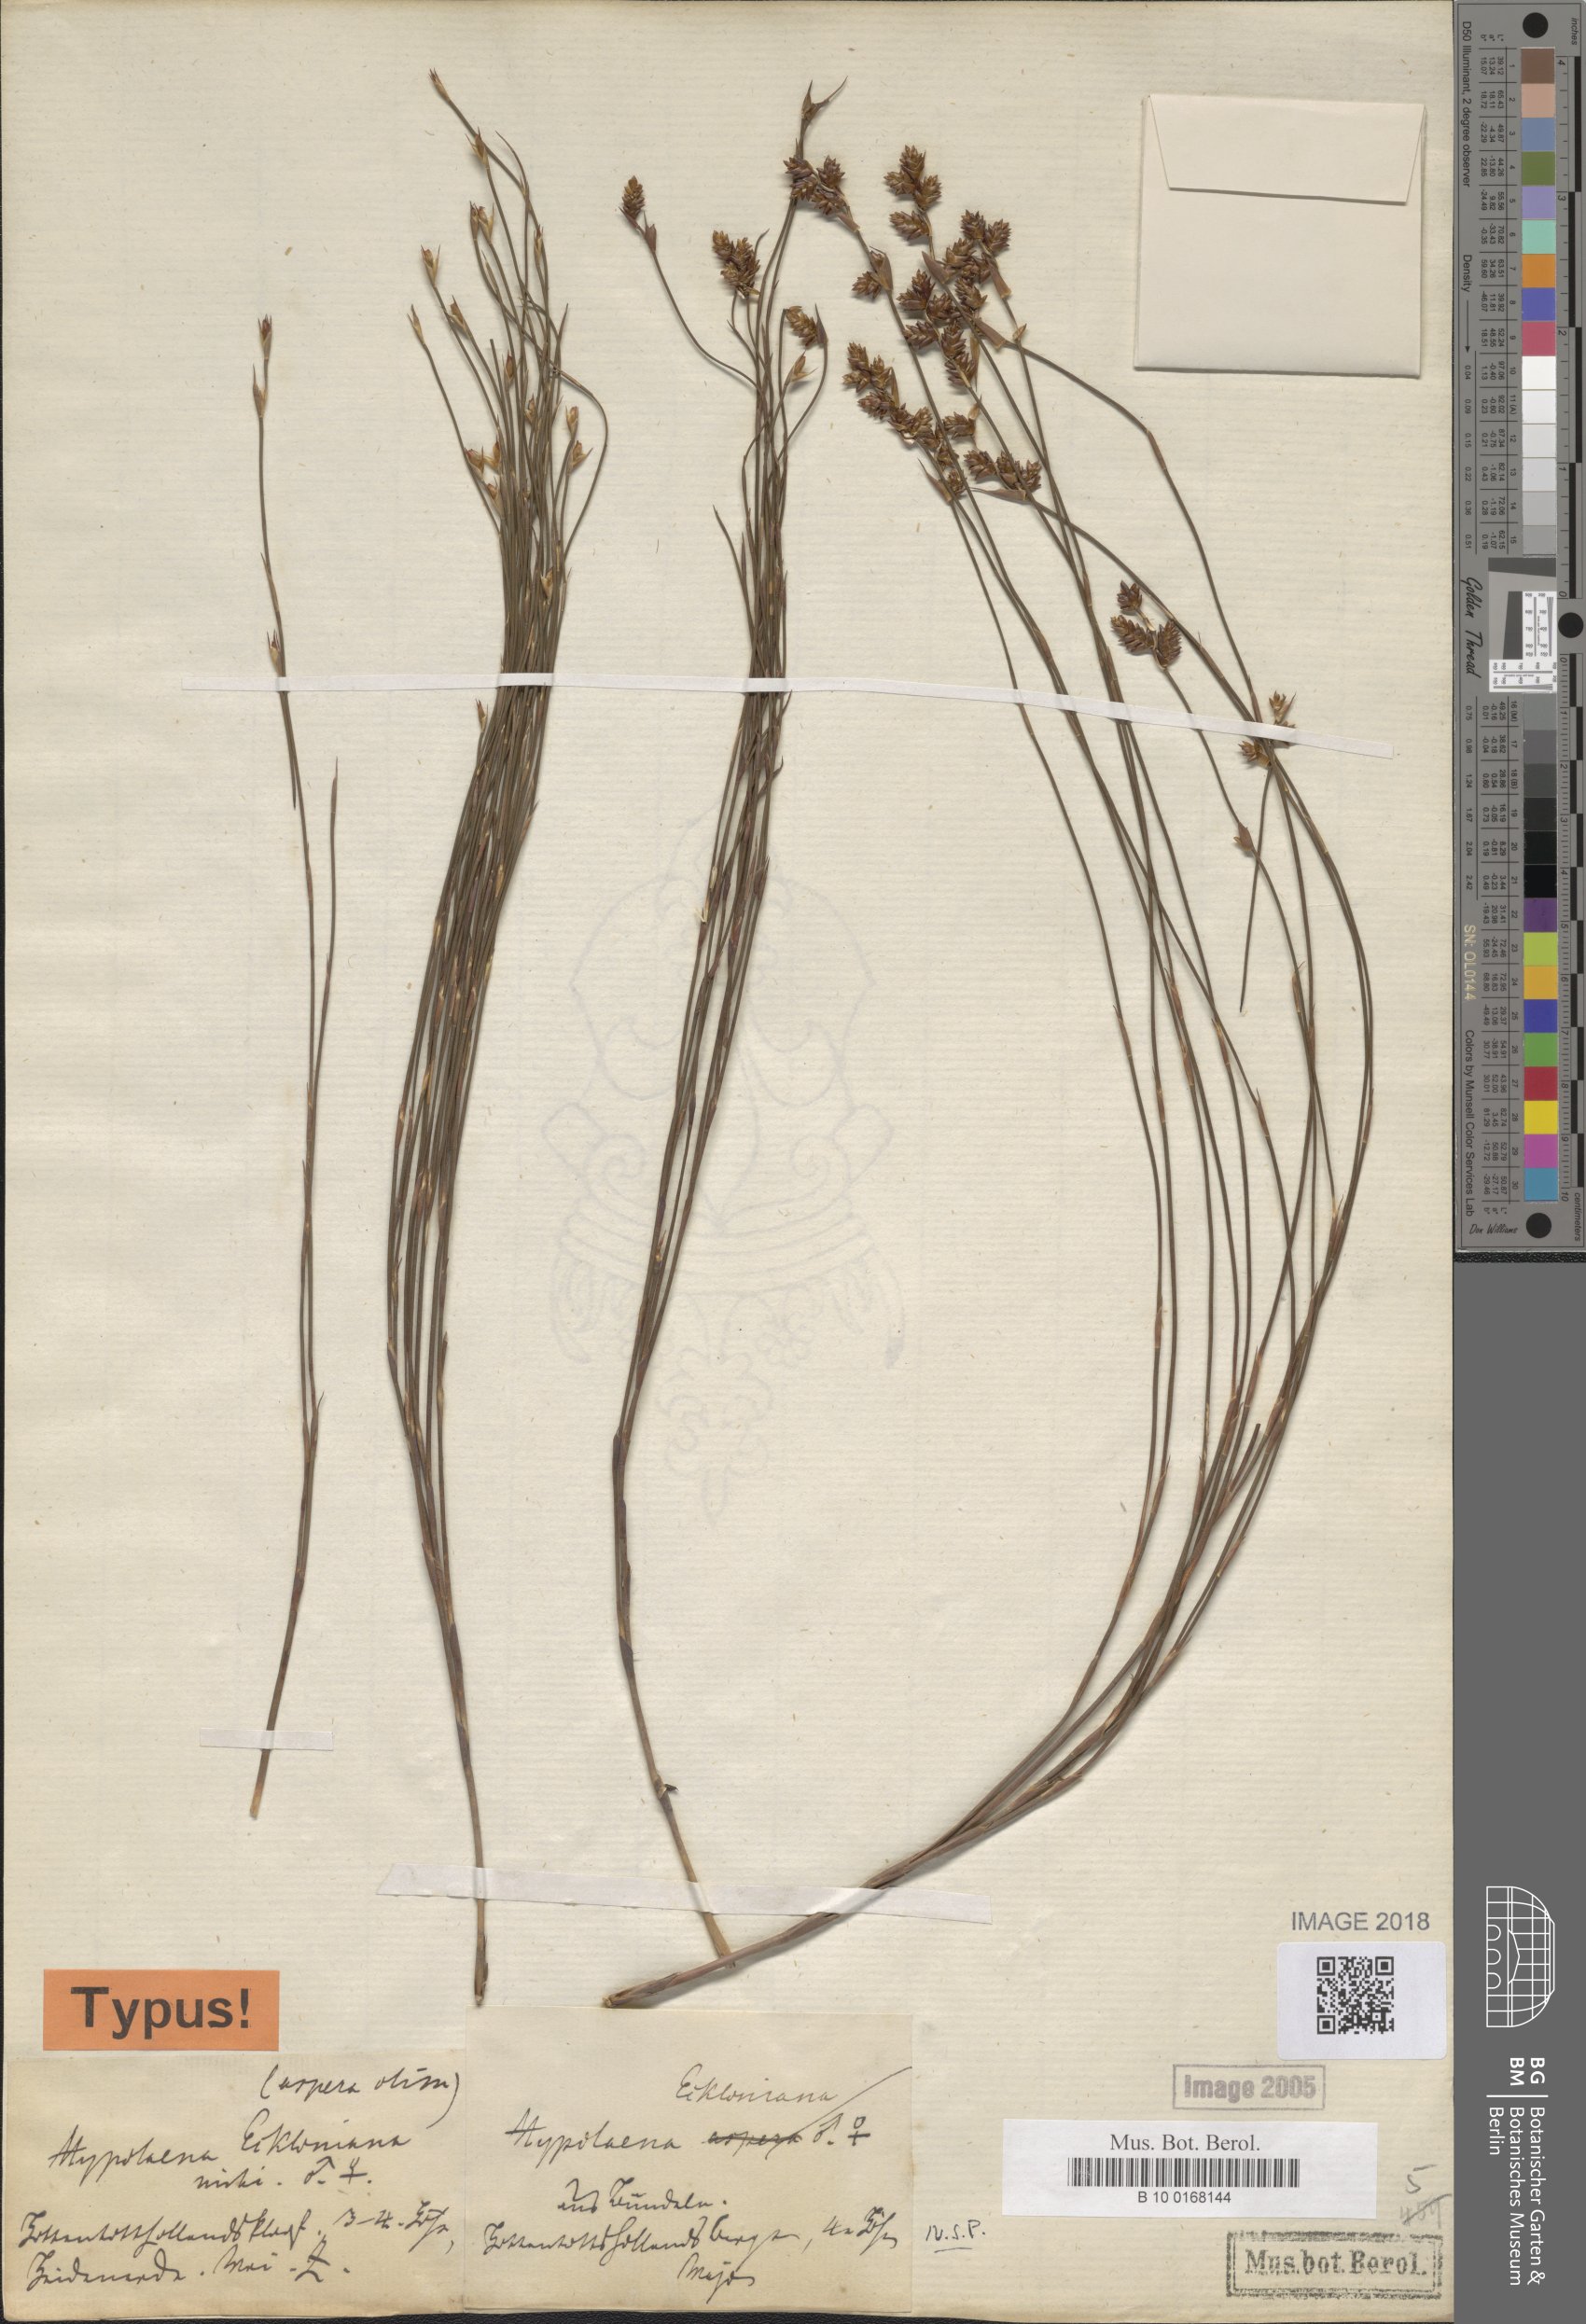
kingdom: Plantae
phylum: Tracheophyta
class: Liliopsida
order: Poales
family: Restionaceae
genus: Mastersiella
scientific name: Mastersiella digitata
